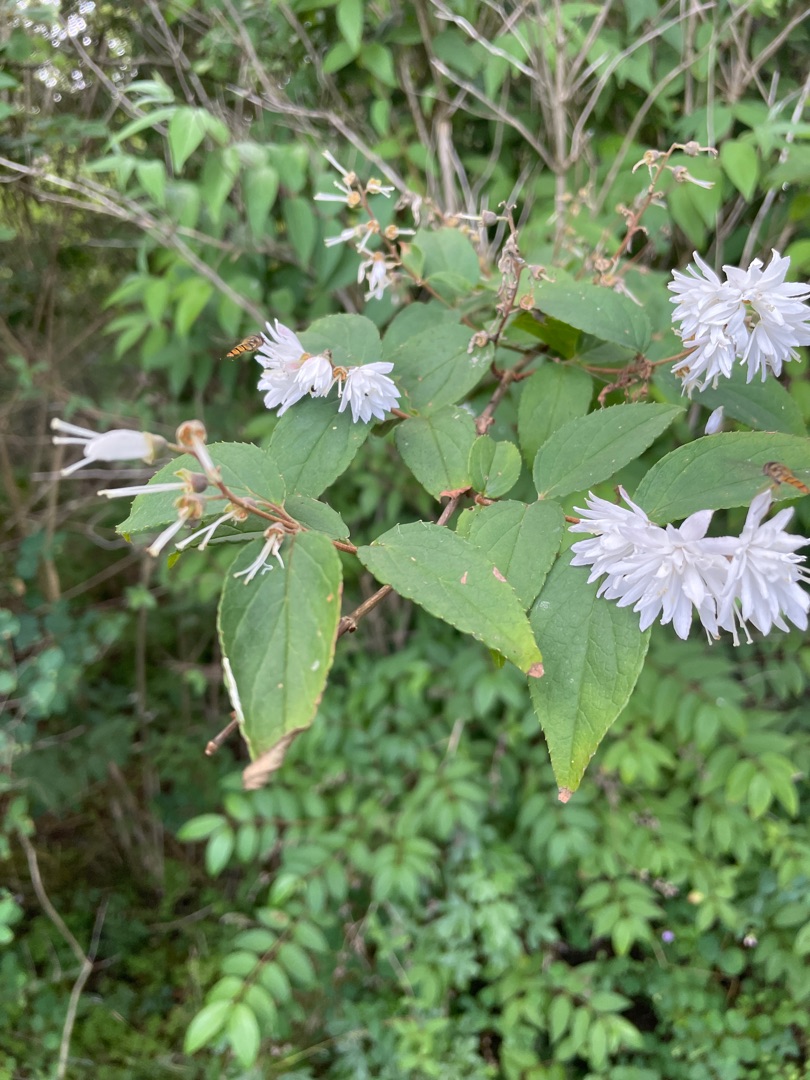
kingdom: Plantae
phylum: Tracheophyta
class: Magnoliopsida
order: Cornales
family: Hydrangeaceae
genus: Deutzia
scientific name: Deutzia
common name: Stjernetopslægten
